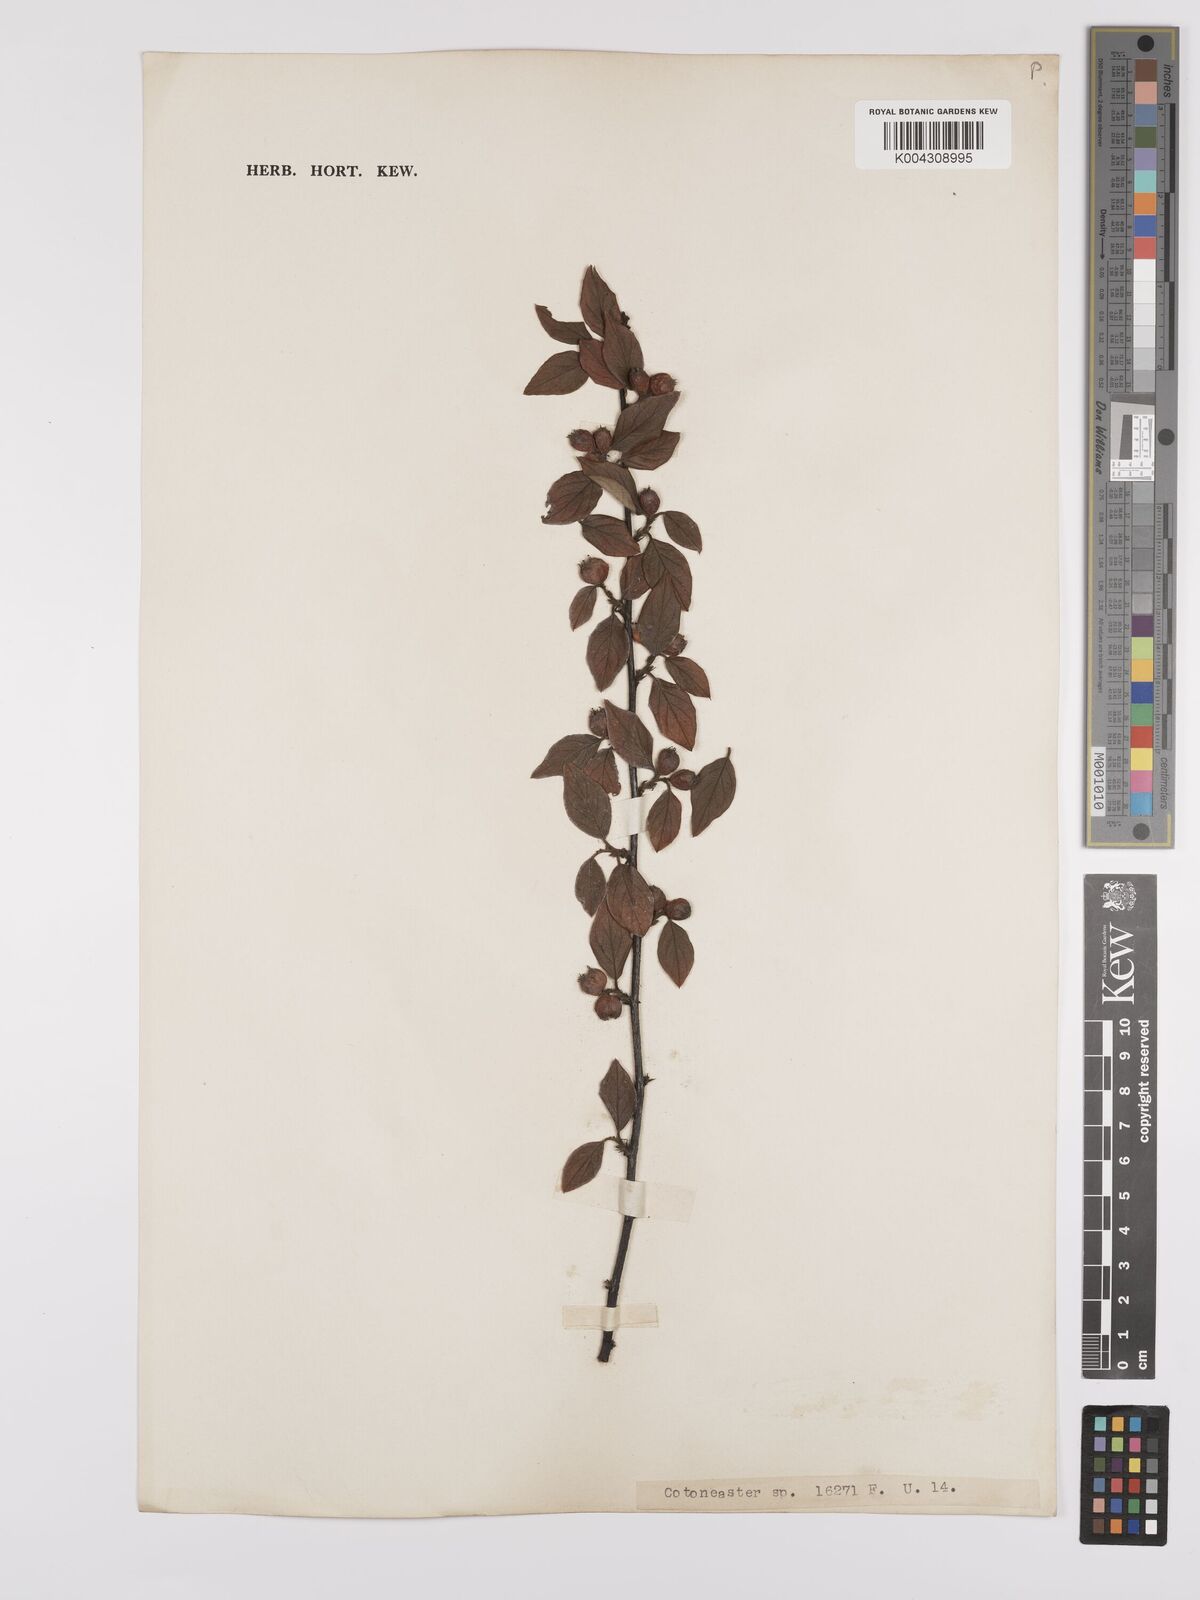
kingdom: Plantae
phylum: Tracheophyta
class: Magnoliopsida
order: Rosales
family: Rosaceae
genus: Cotoneaster
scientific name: Cotoneaster
